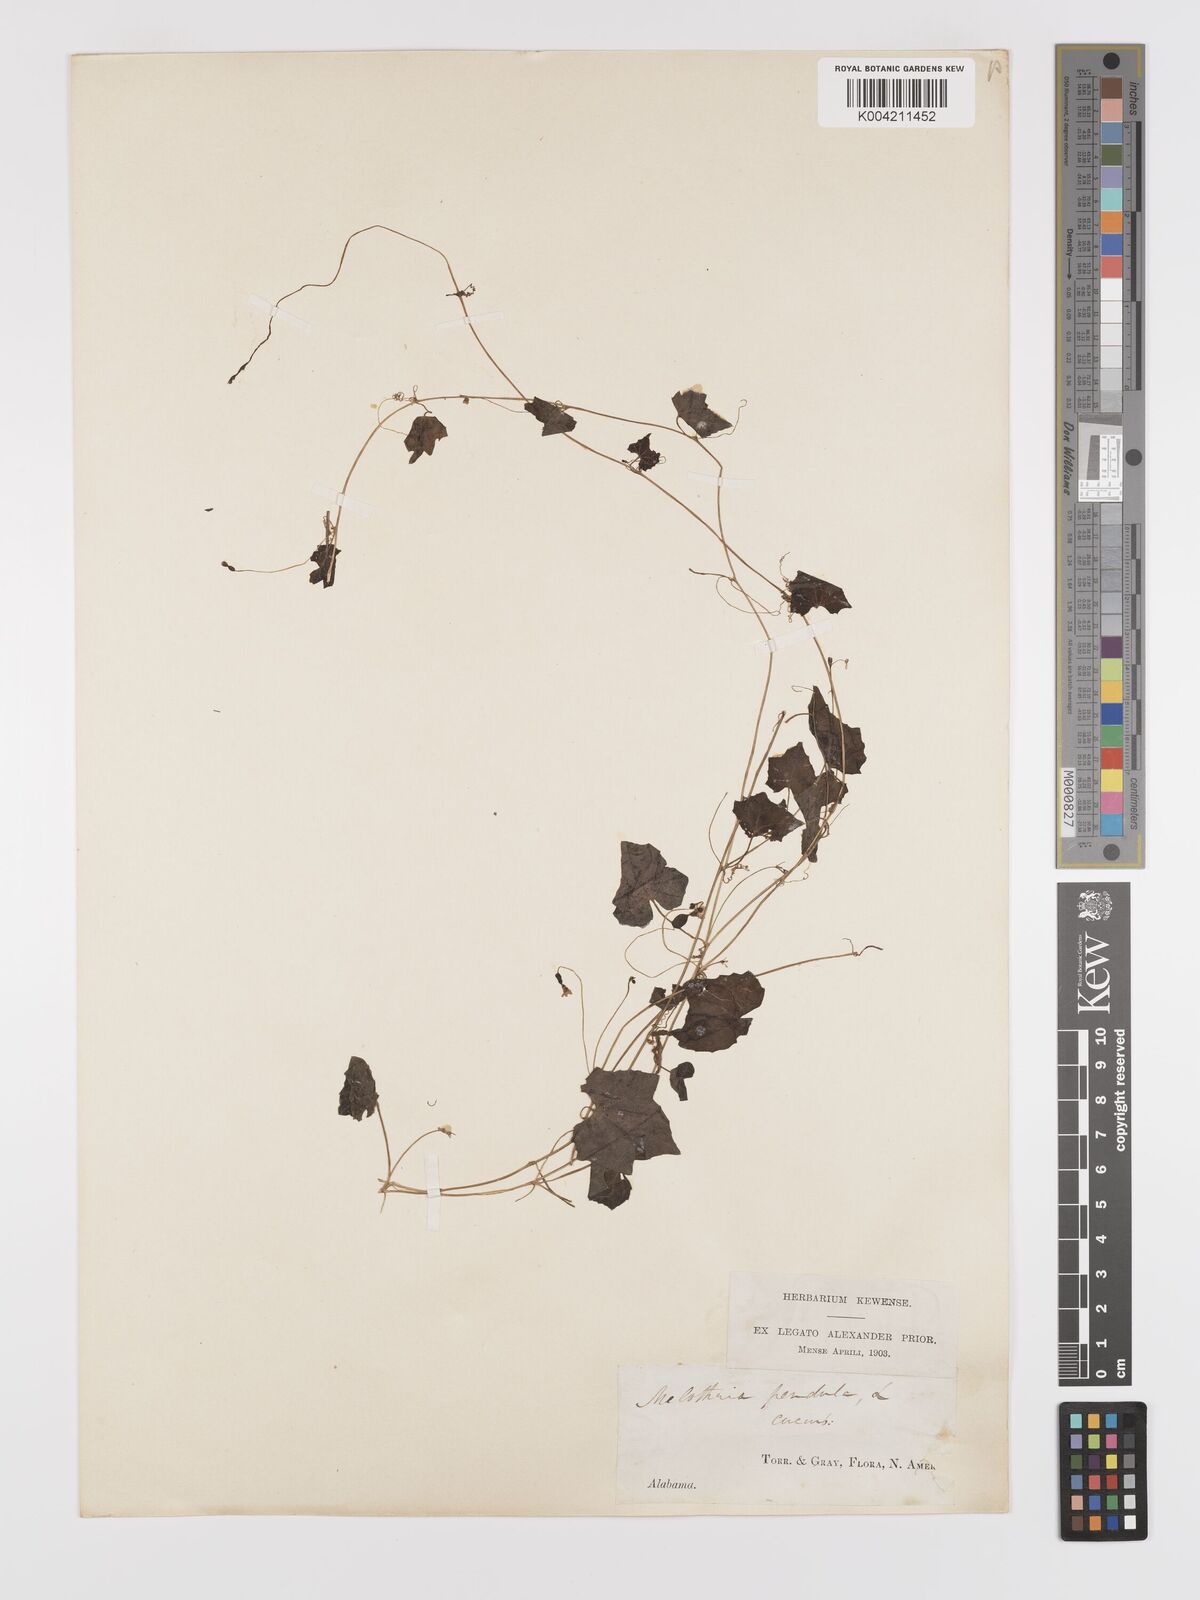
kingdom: Plantae
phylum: Tracheophyta
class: Magnoliopsida
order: Cucurbitales
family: Cucurbitaceae
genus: Melothria
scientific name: Melothria pendula
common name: Creeping-cucumber
